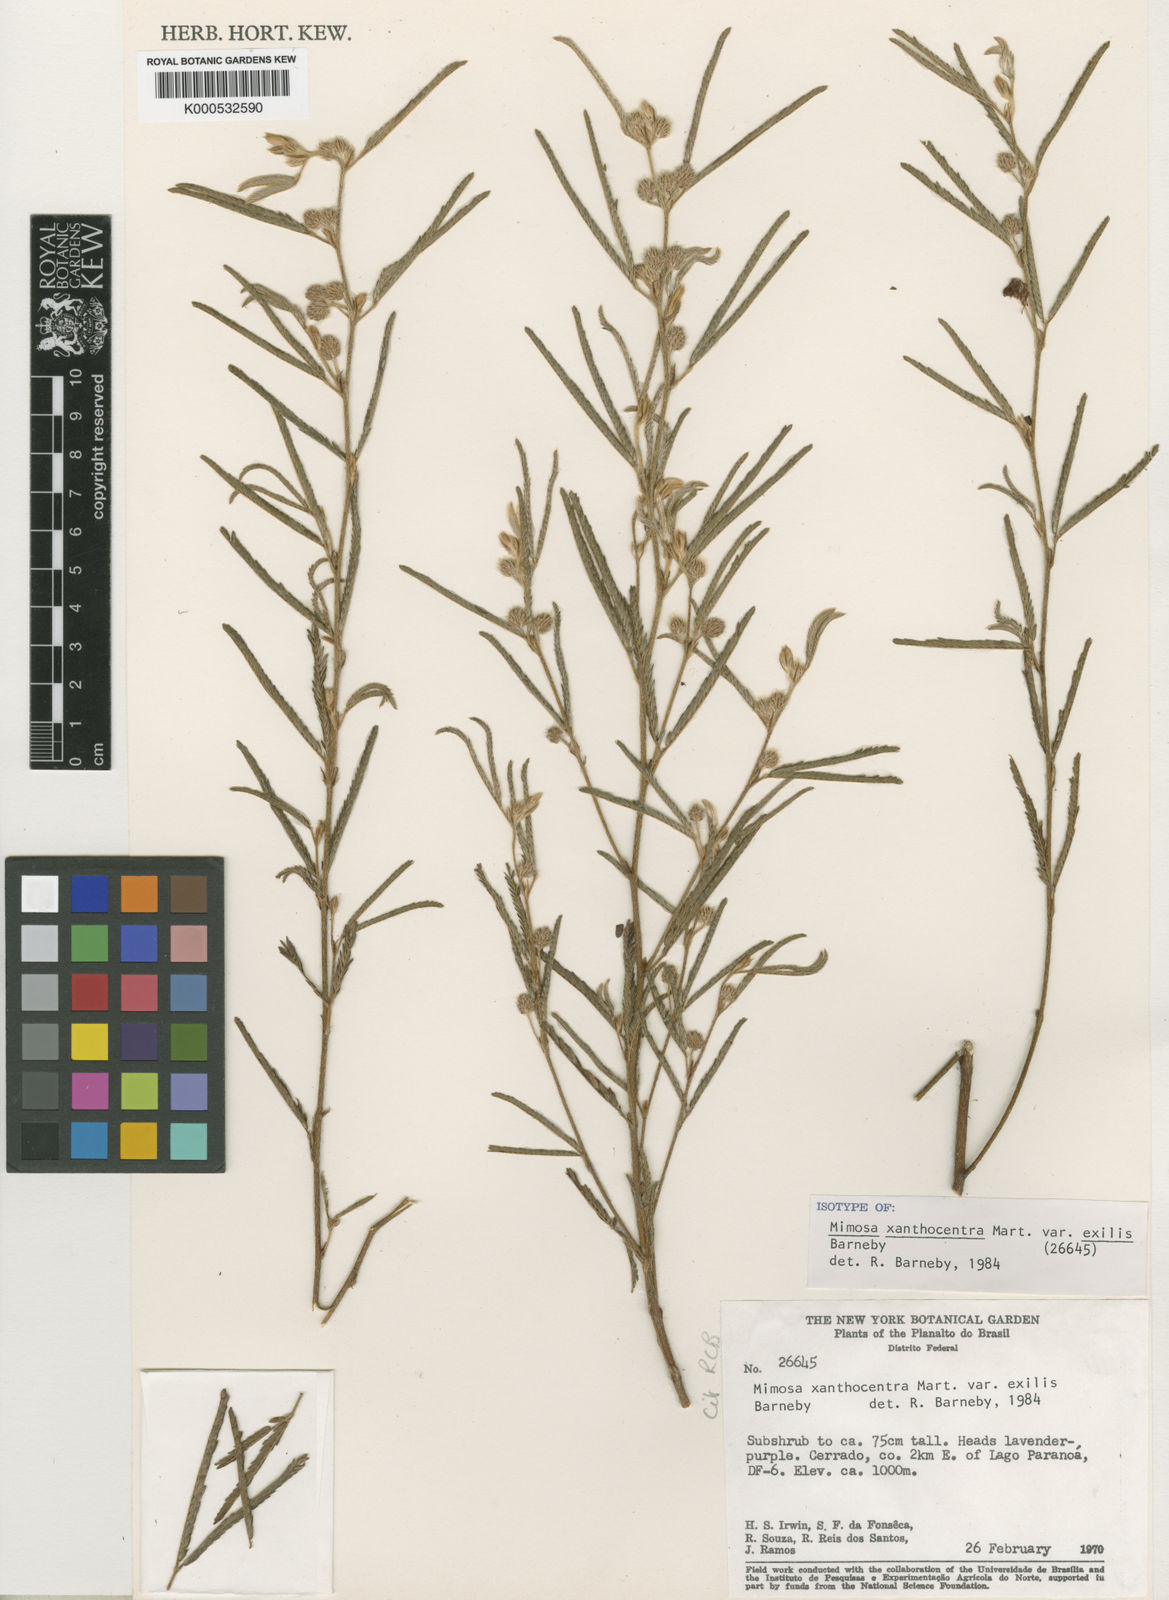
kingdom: Plantae
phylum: Tracheophyta
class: Magnoliopsida
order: Fabales
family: Fabaceae
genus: Mimosa
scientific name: Mimosa xanthocentra
